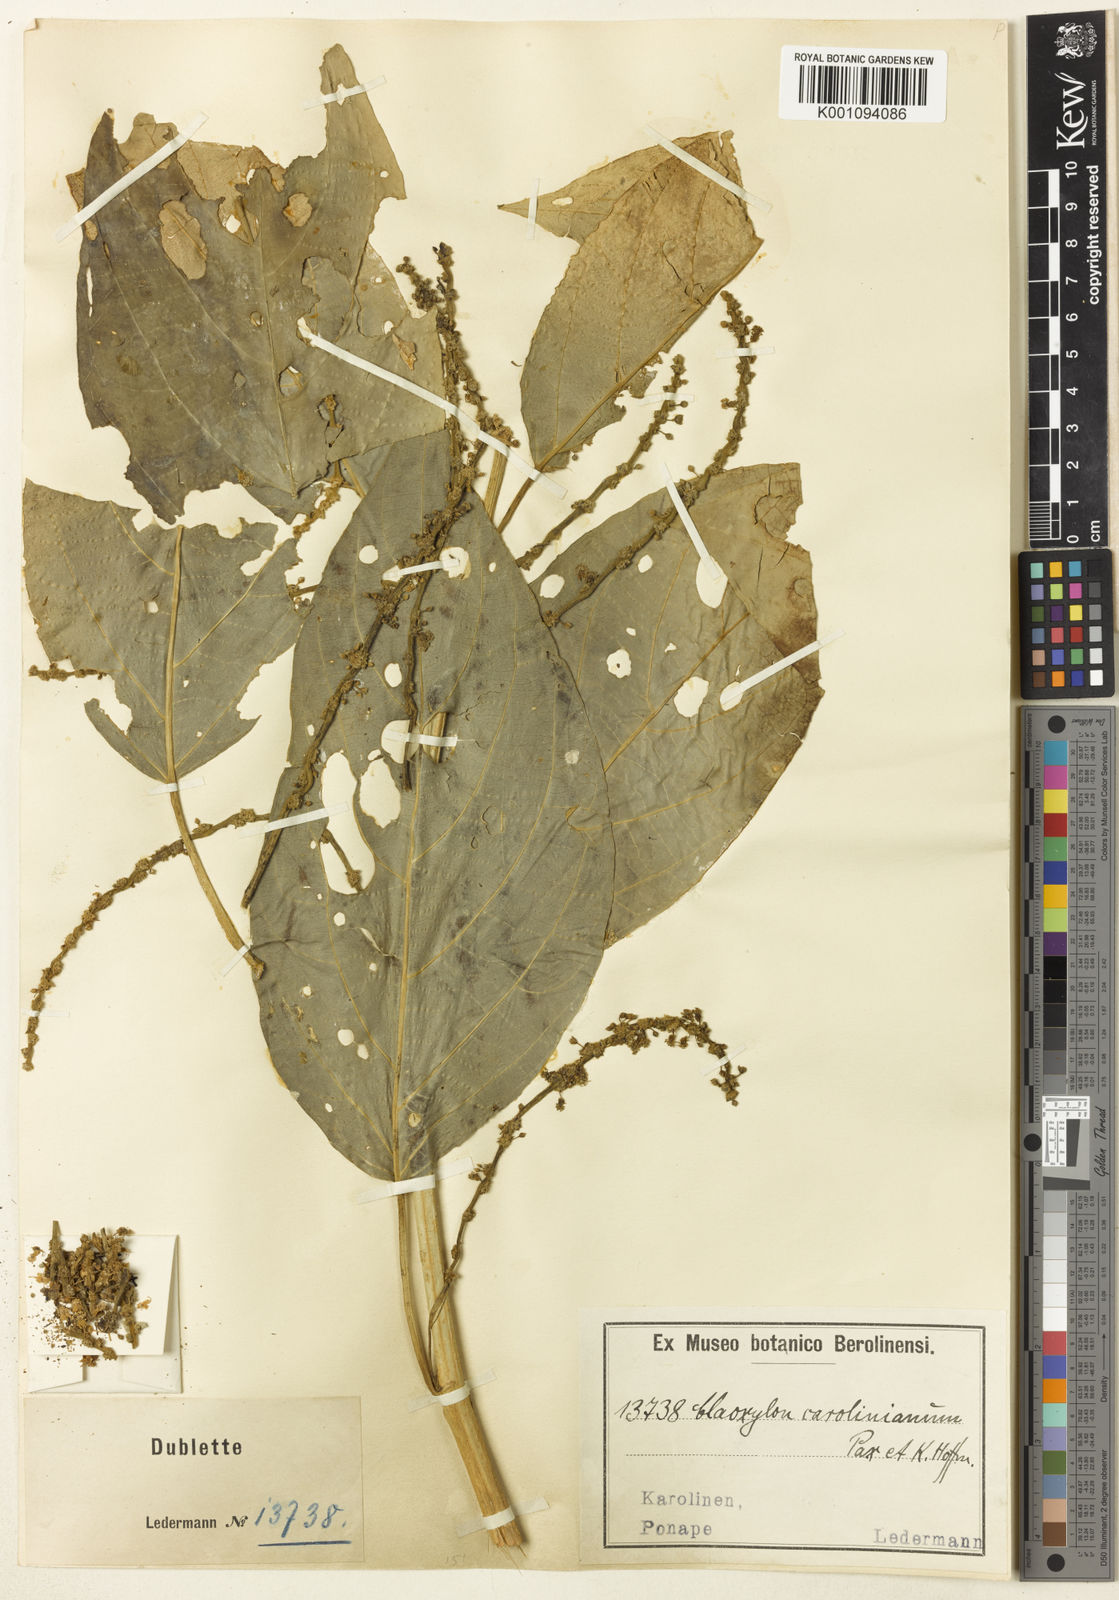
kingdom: Plantae
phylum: Tracheophyta
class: Magnoliopsida
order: Malpighiales
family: Euphorbiaceae
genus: Claoxylon
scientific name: Claoxylon carolinianum
